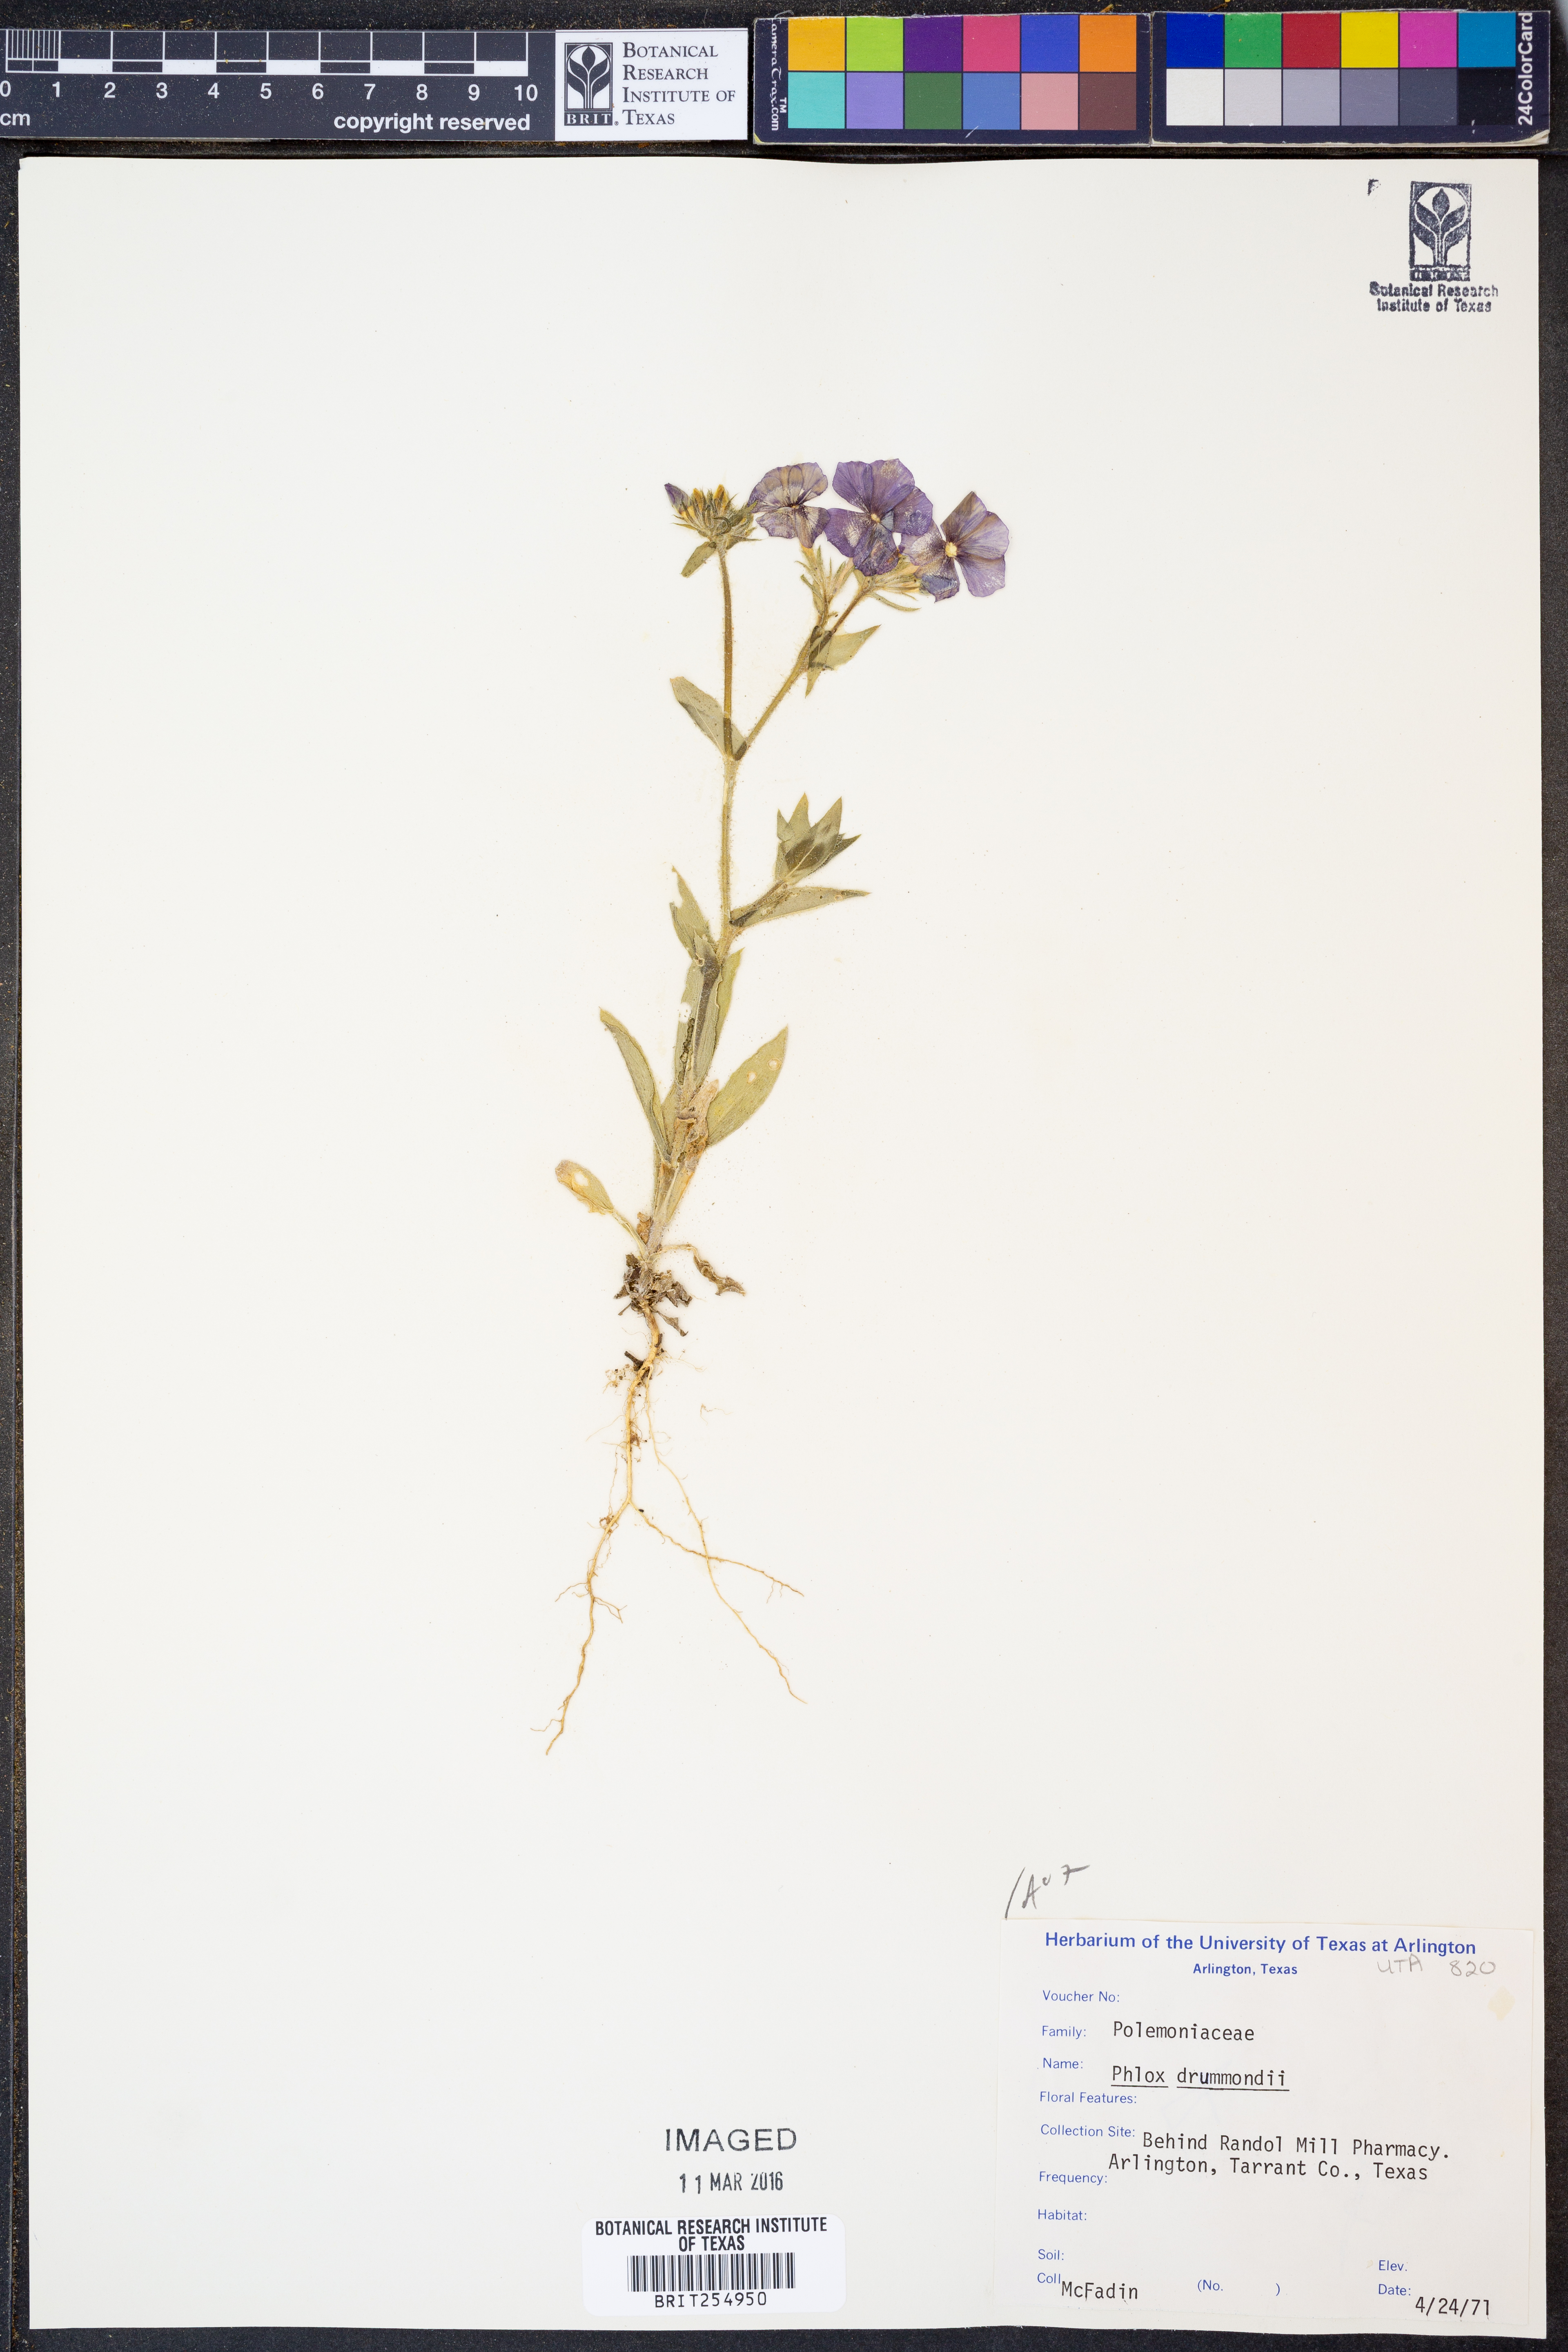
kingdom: Plantae
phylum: Tracheophyta
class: Magnoliopsida
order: Ericales
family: Polemoniaceae
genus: Phlox
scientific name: Phlox drummondii
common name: Drummond's phlox
